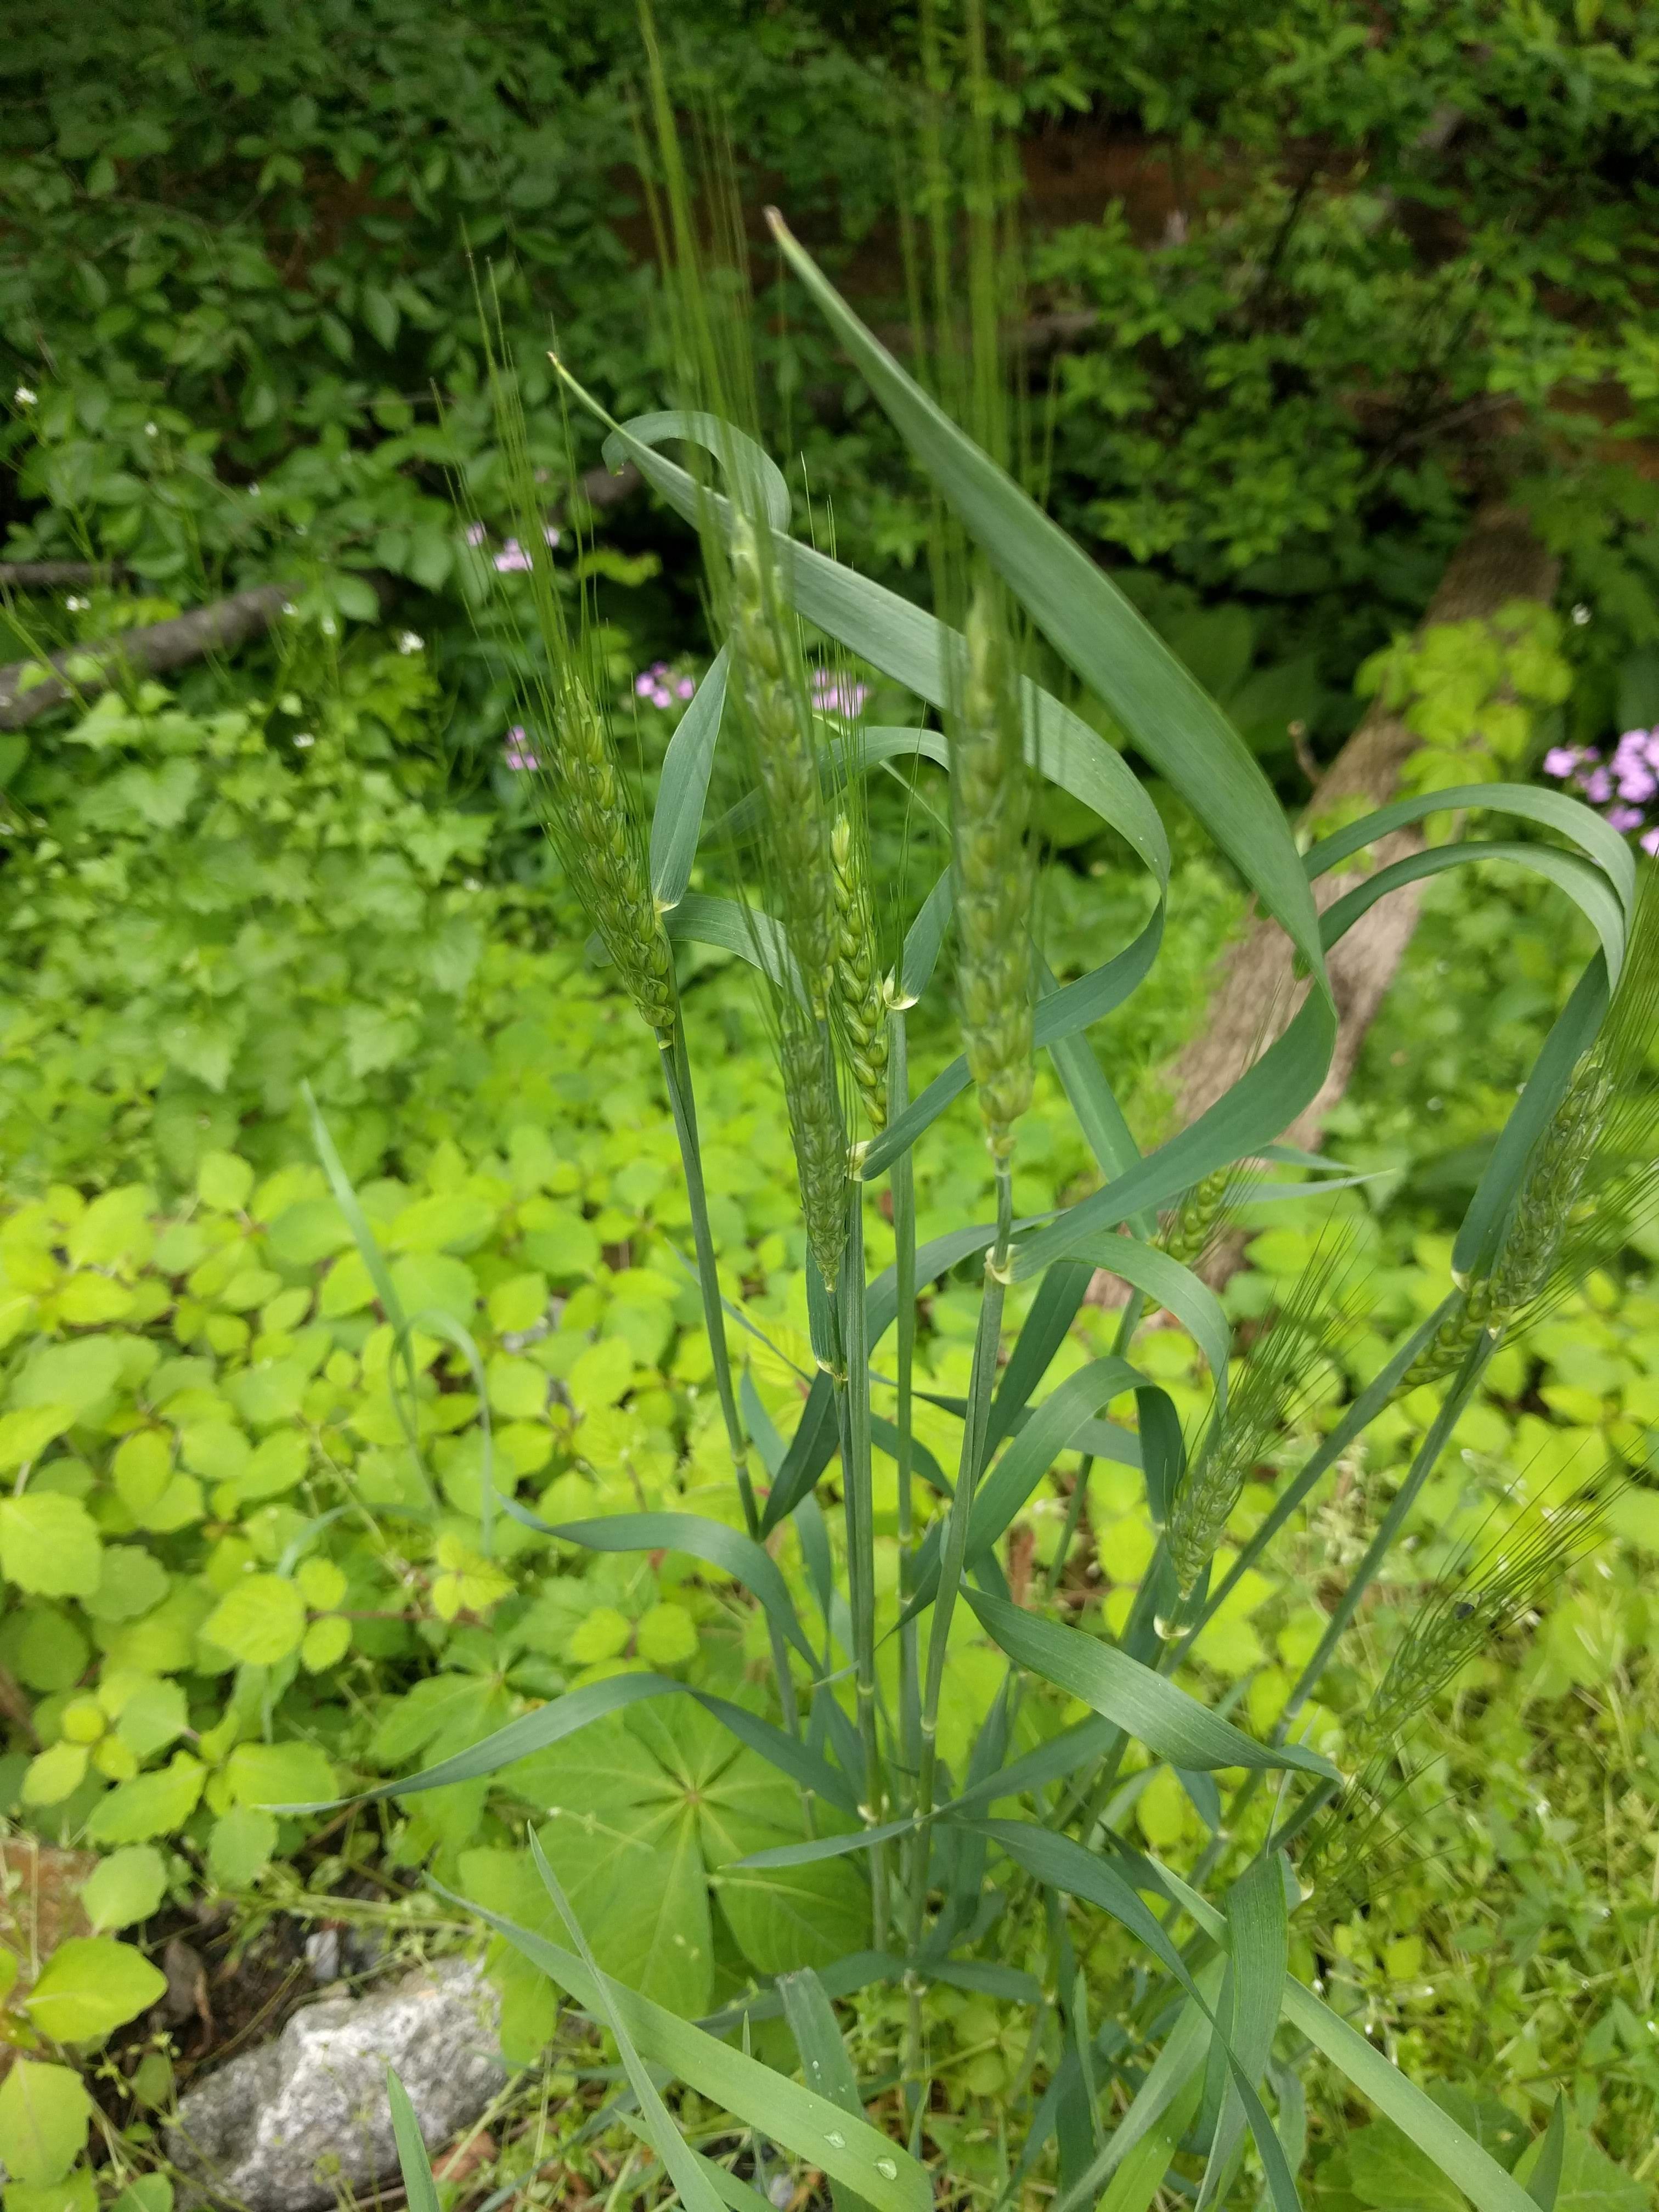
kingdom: Plantae
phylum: Tracheophyta
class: Liliopsida
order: Poales
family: Poaceae
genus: Triticum
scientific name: Triticum aestivum
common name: Common wheat
